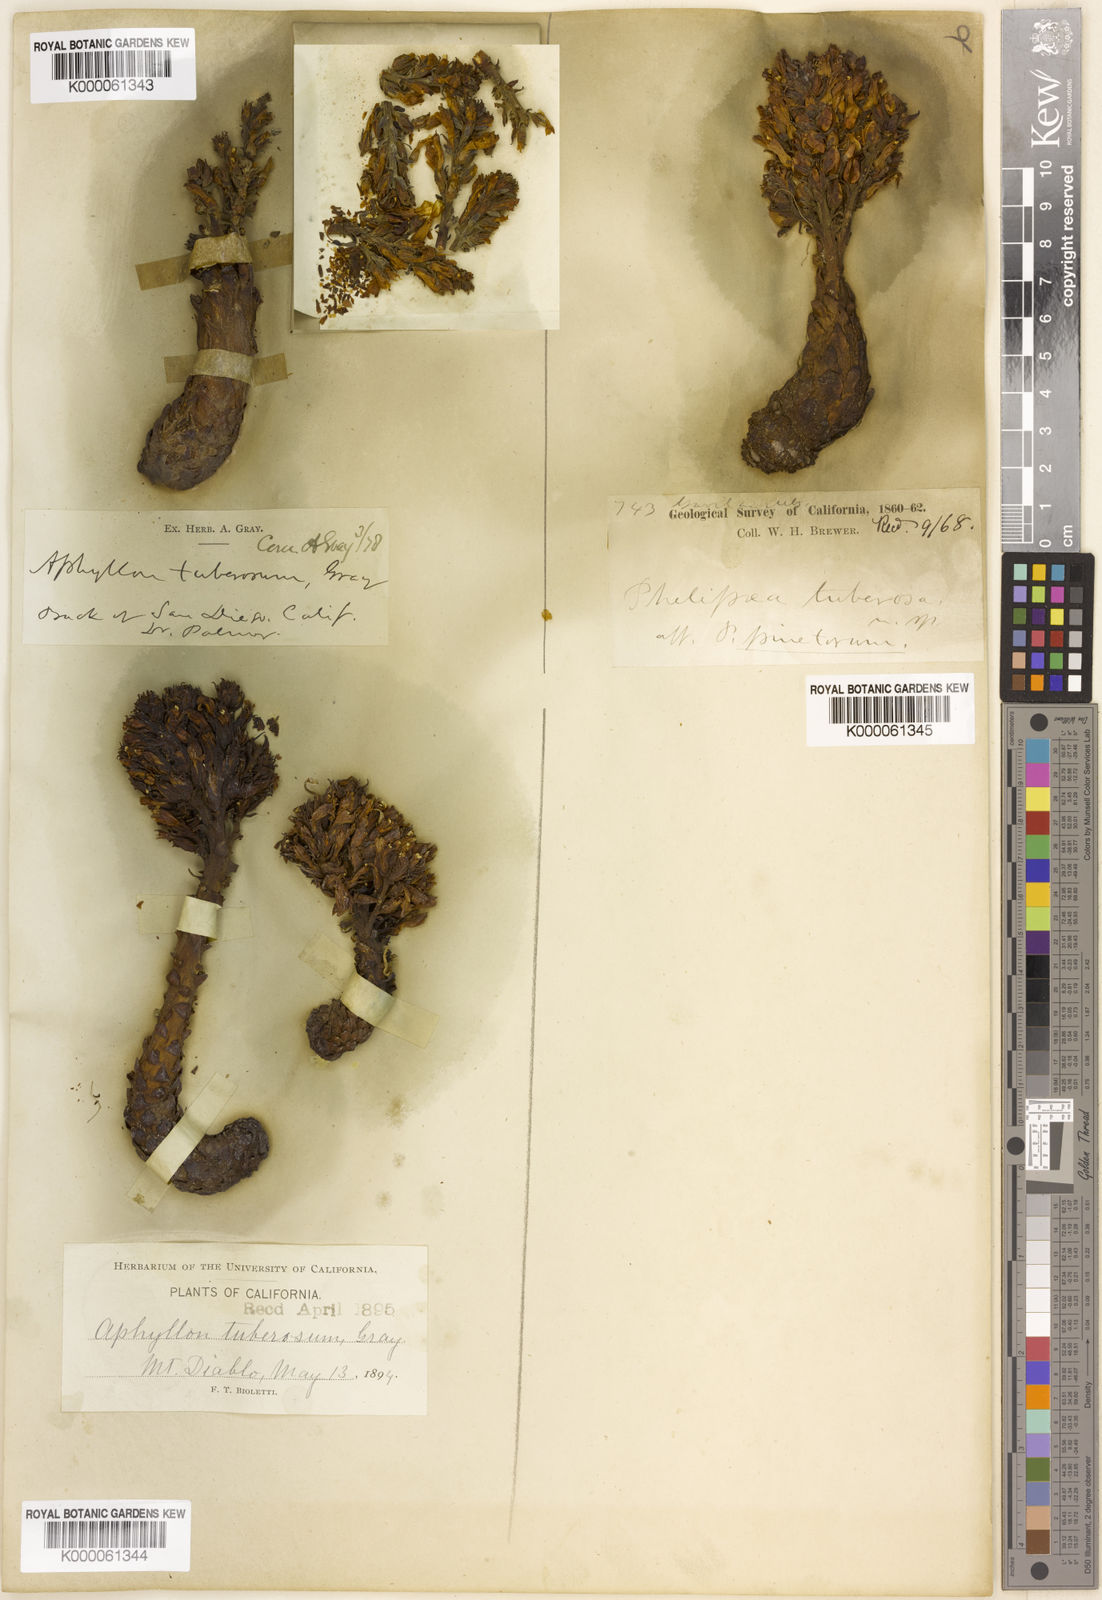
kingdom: Plantae
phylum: Tracheophyta
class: Magnoliopsida
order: Lamiales
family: Orobanchaceae
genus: Aphyllon
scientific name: Aphyllon tuberosum
